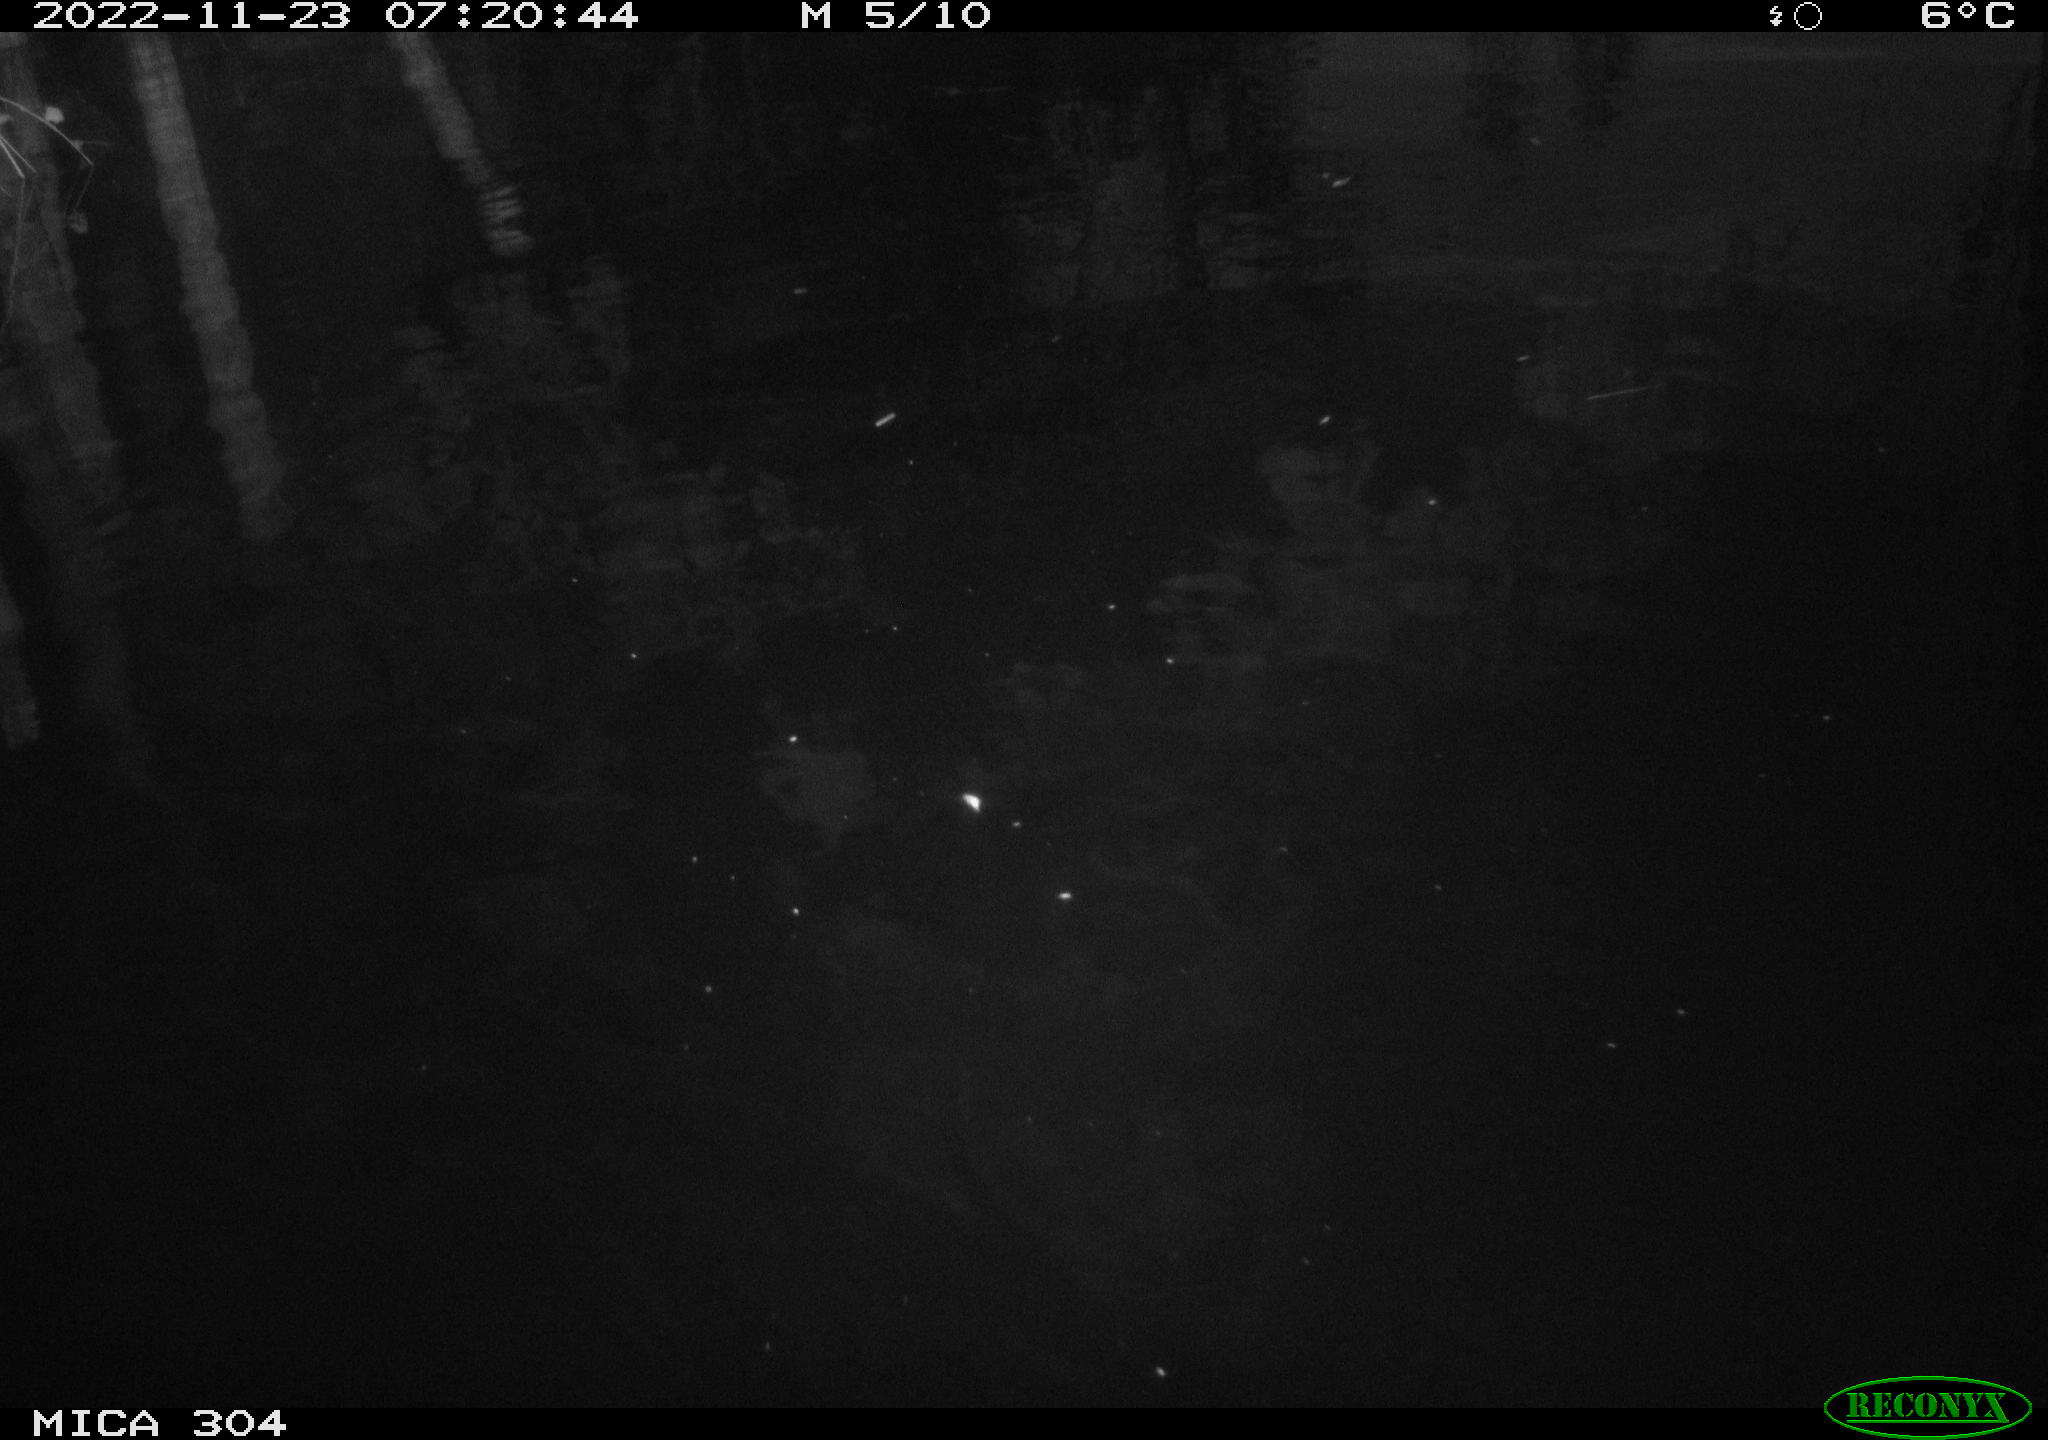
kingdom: Animalia
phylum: Chordata
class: Aves
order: Anseriformes
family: Anatidae
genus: Anas
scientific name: Anas
